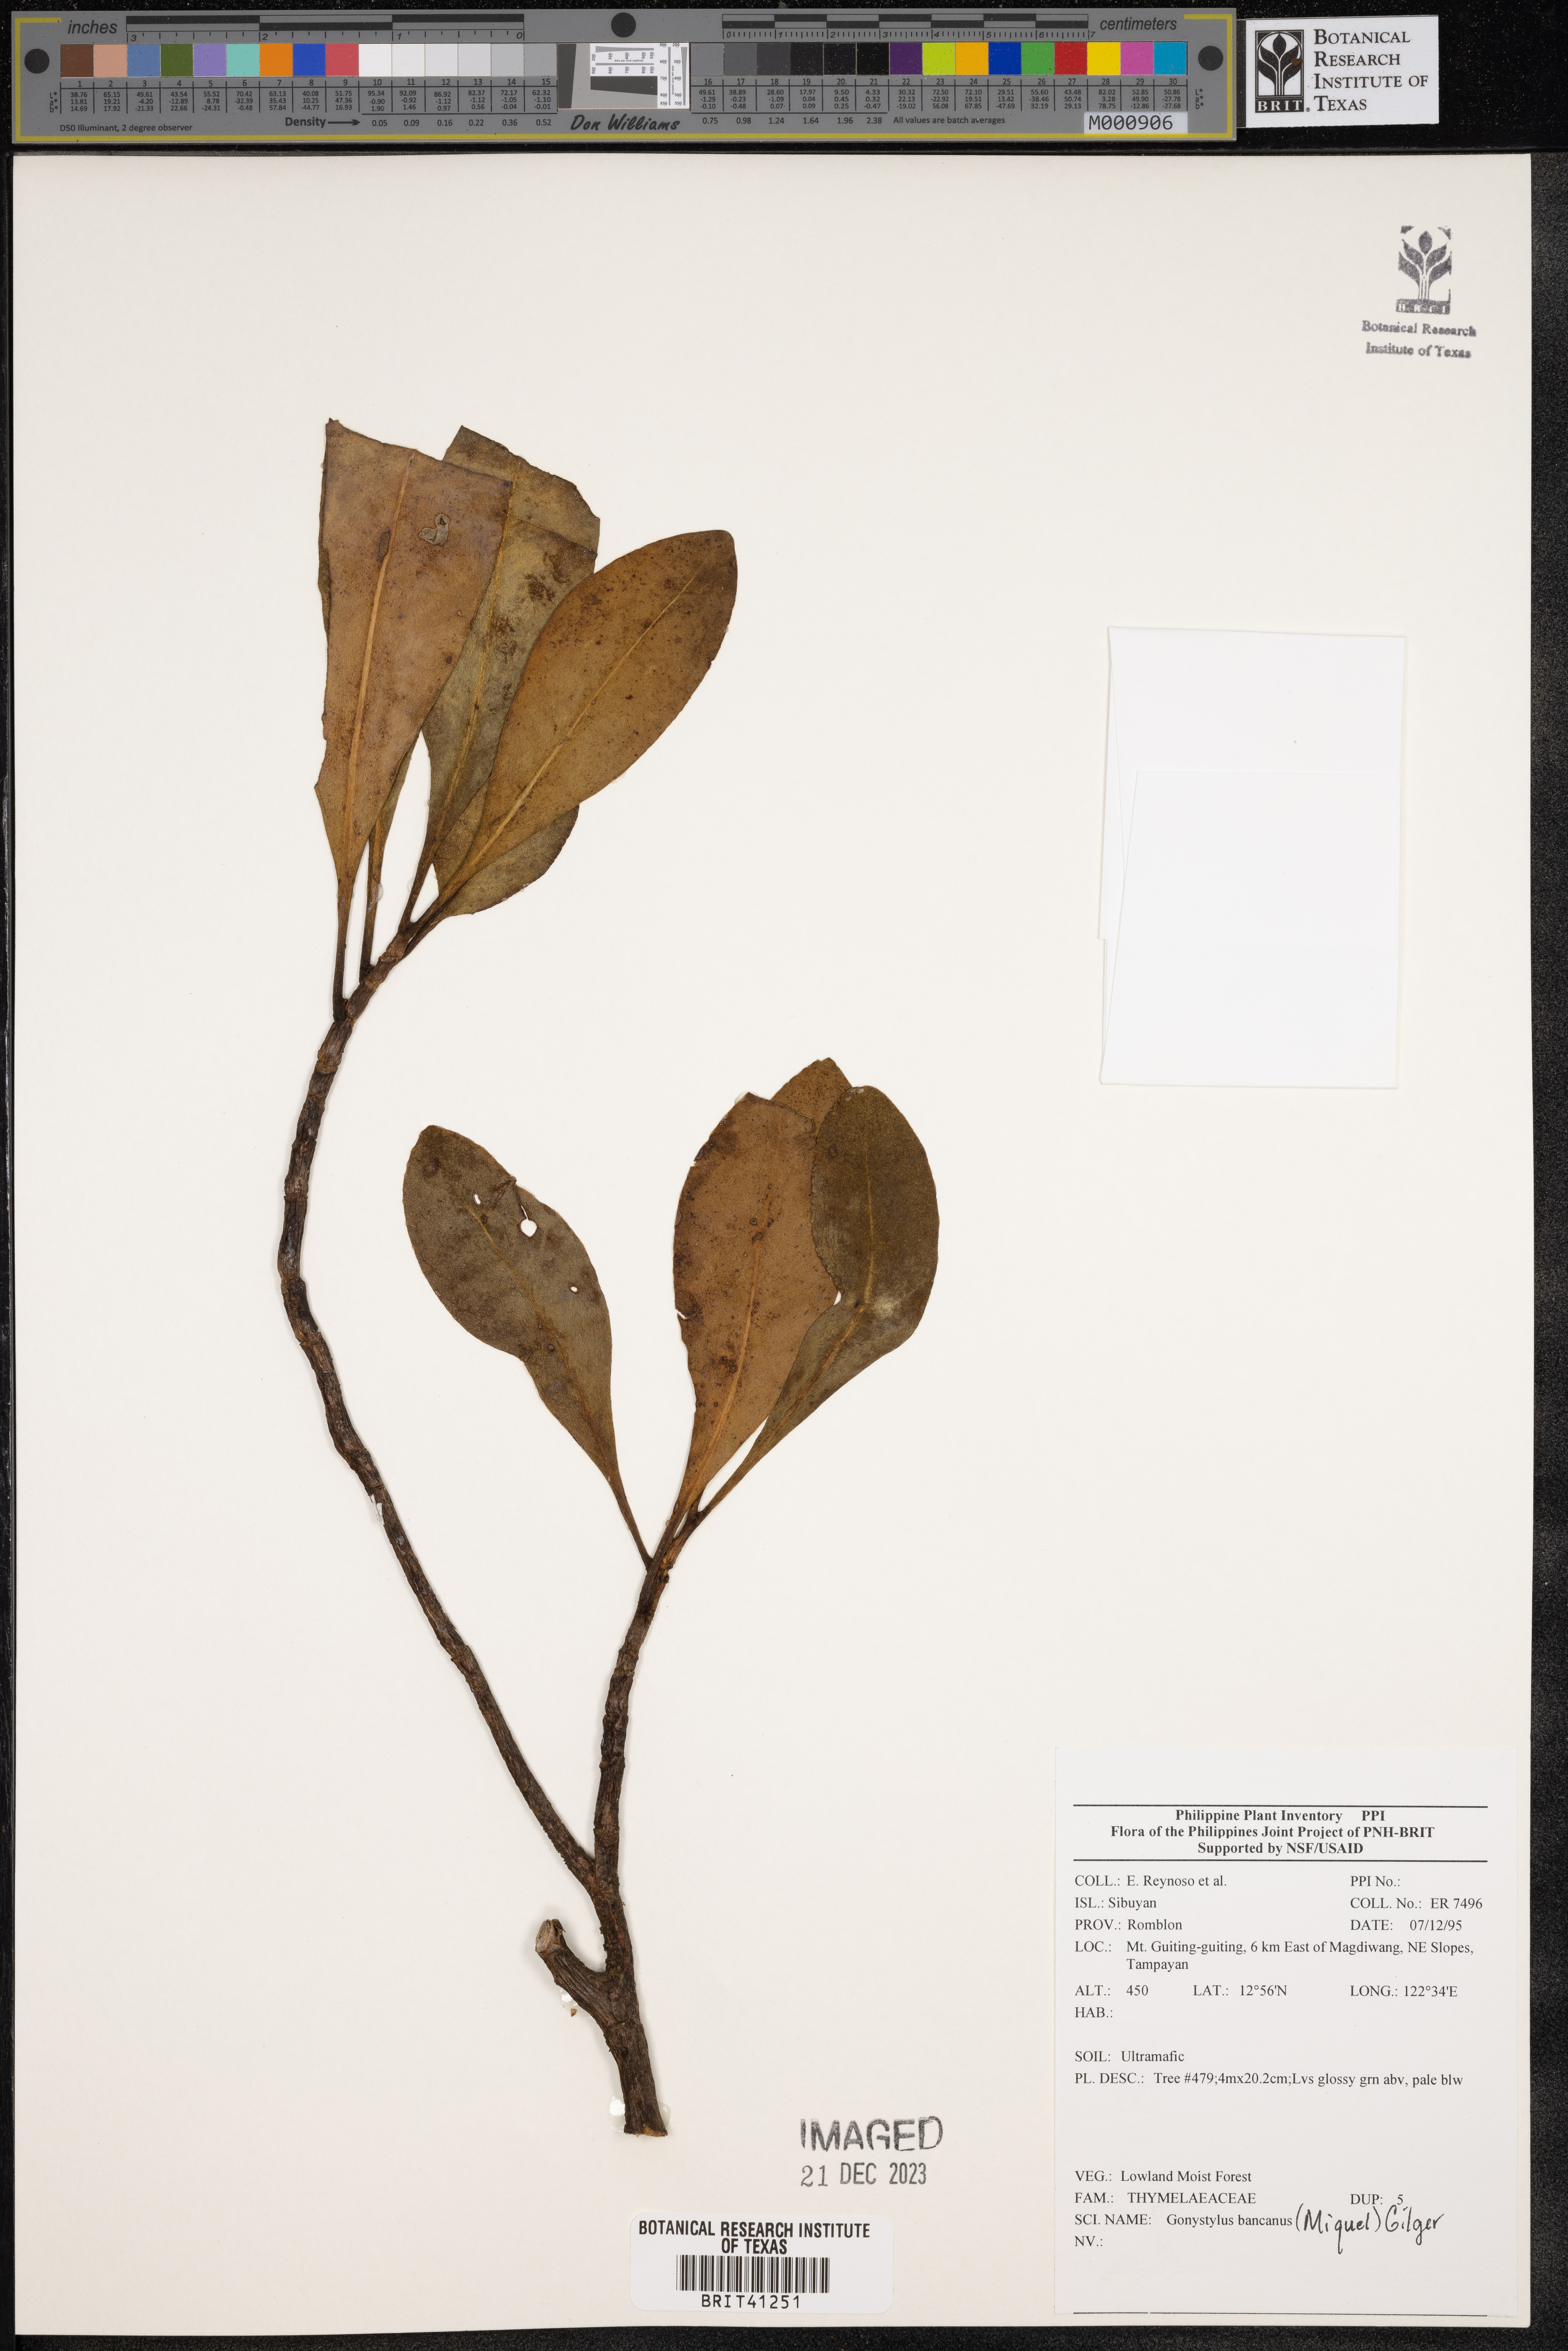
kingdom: Plantae
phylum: Tracheophyta
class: Magnoliopsida
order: Malvales
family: Thymelaeaceae
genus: Gonystylus
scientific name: Gonystylus bancanus
